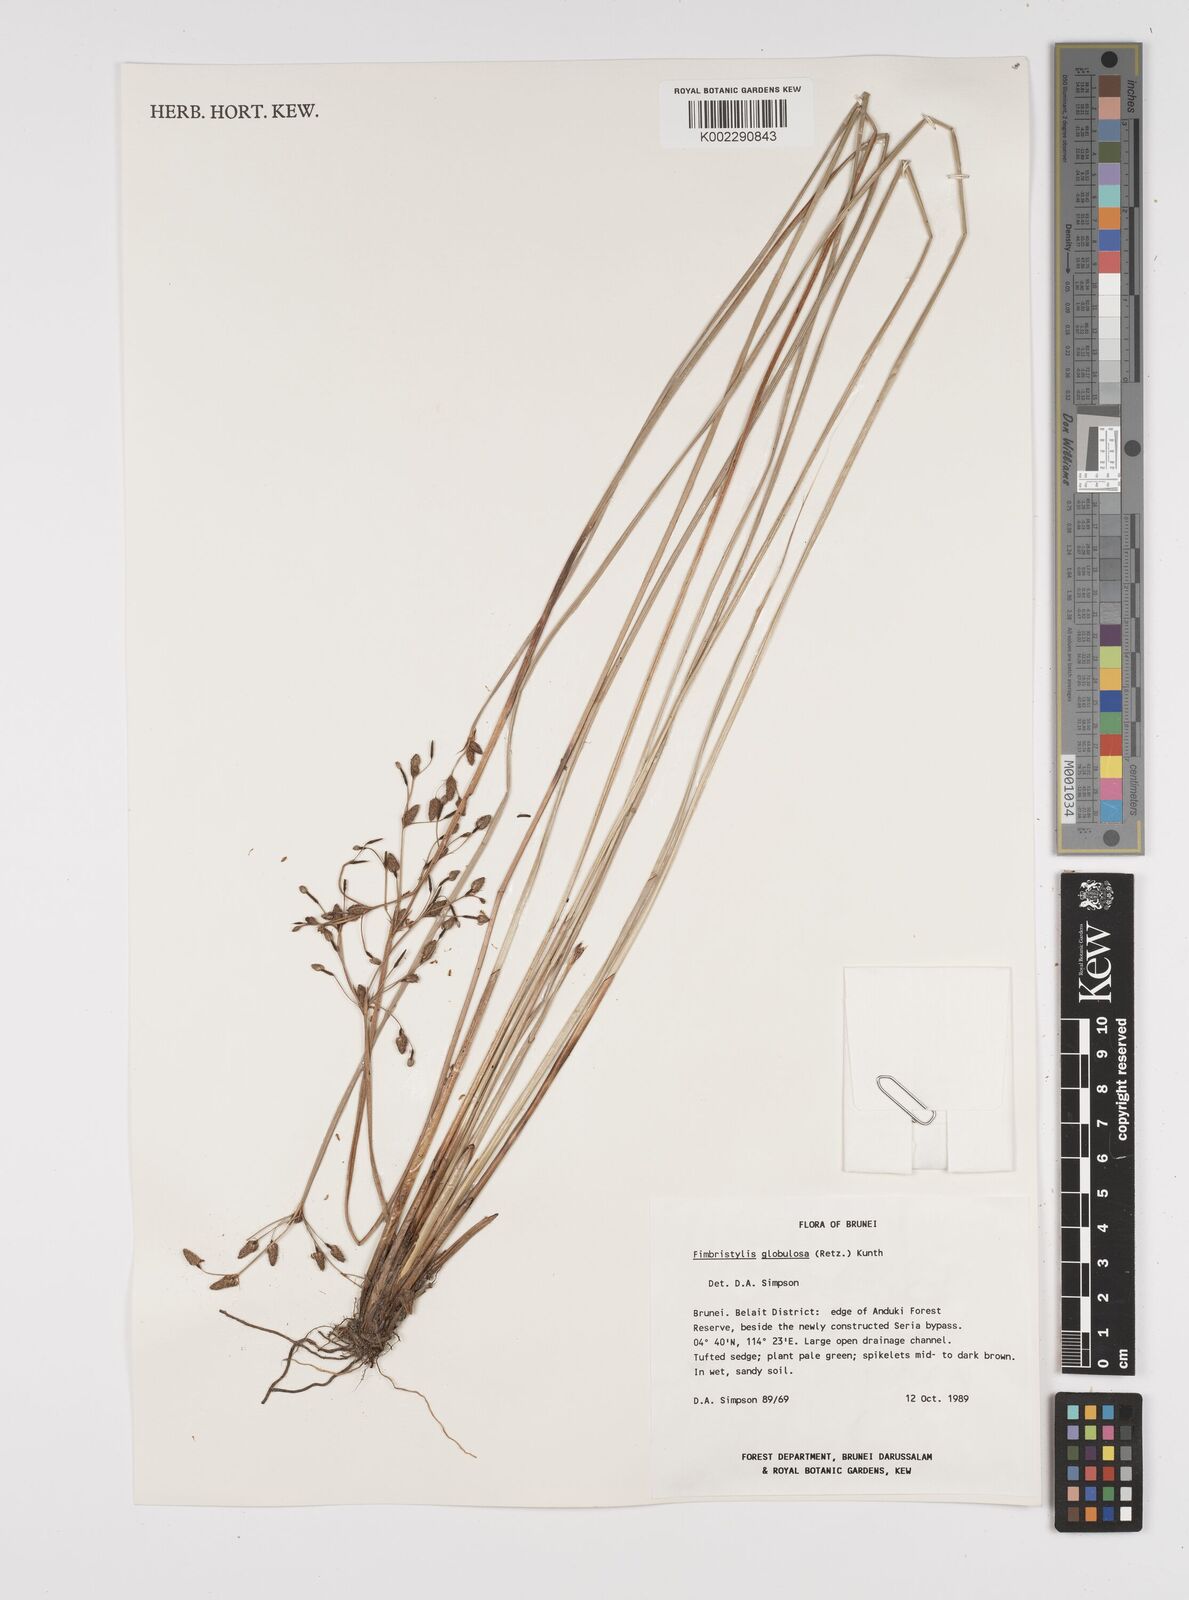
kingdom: Plantae
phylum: Tracheophyta
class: Liliopsida
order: Poales
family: Cyperaceae
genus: Fimbristylis
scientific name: Fimbristylis umbellaris
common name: Globular fimbristylis
